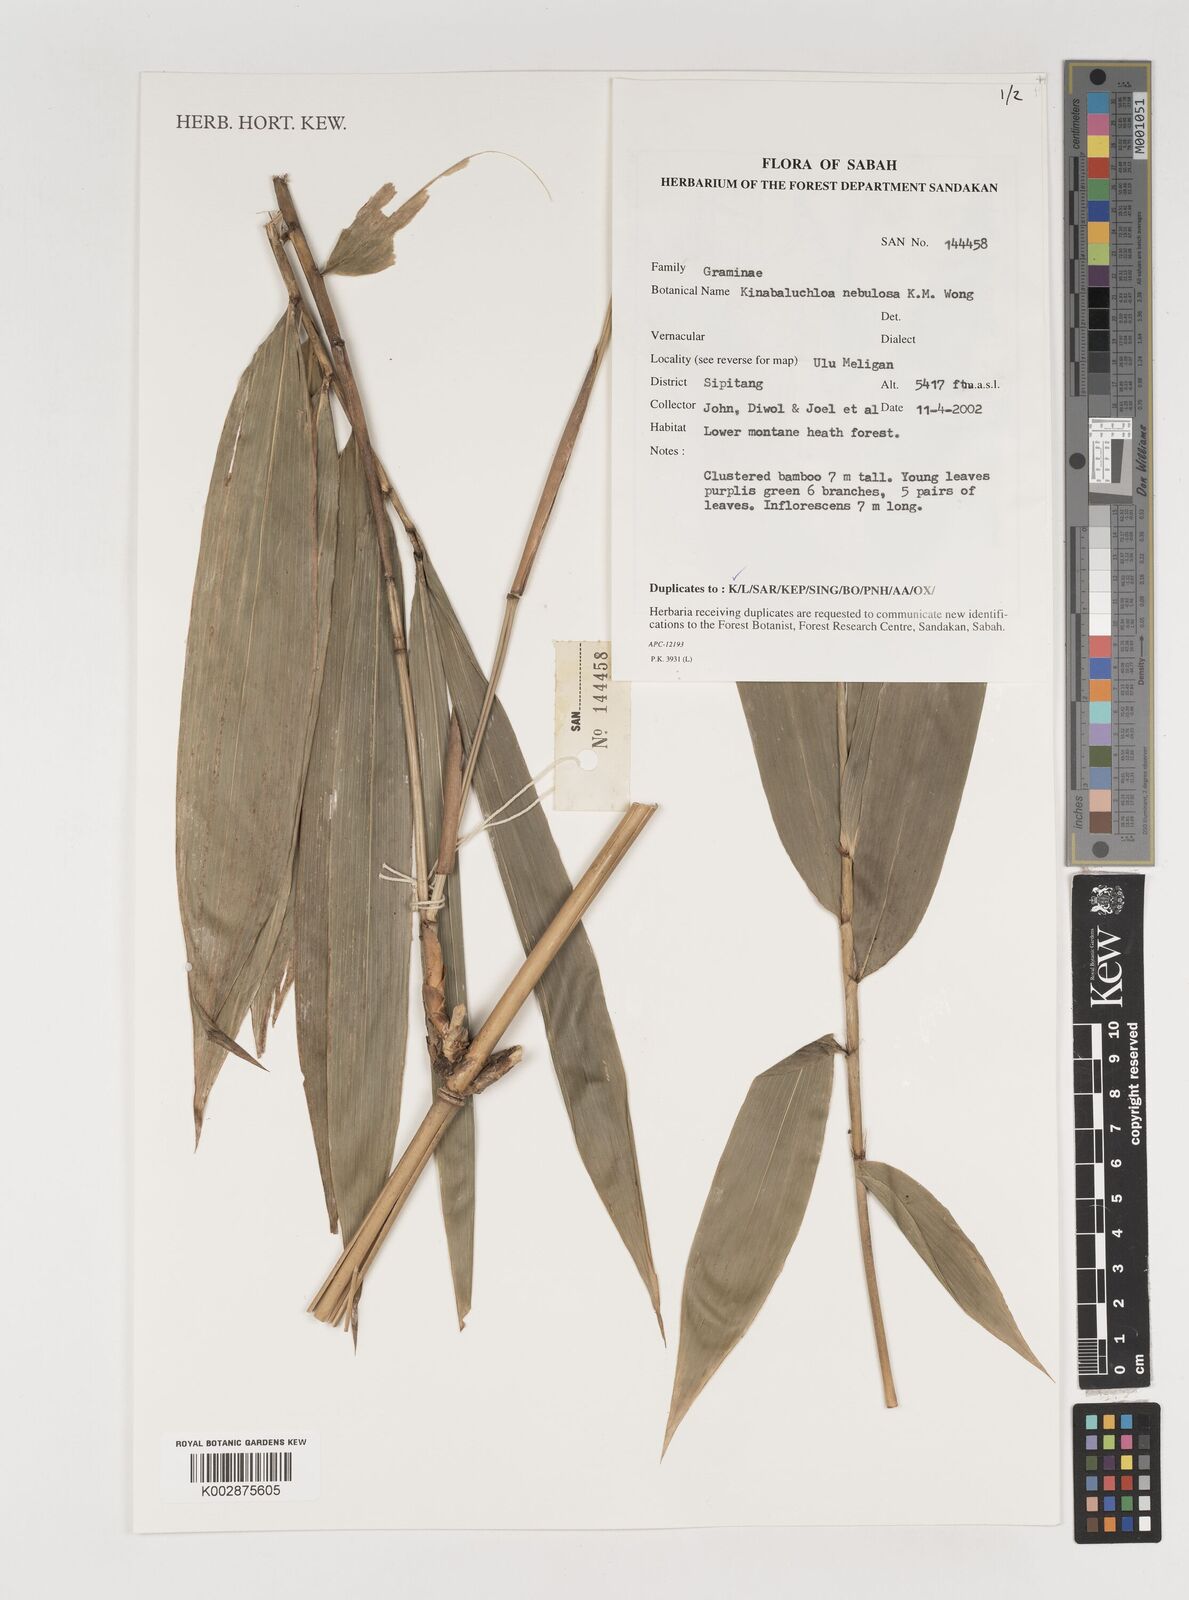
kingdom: Plantae
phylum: Tracheophyta
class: Liliopsida
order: Poales
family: Poaceae
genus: Kinabaluchloa
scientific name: Kinabaluchloa
